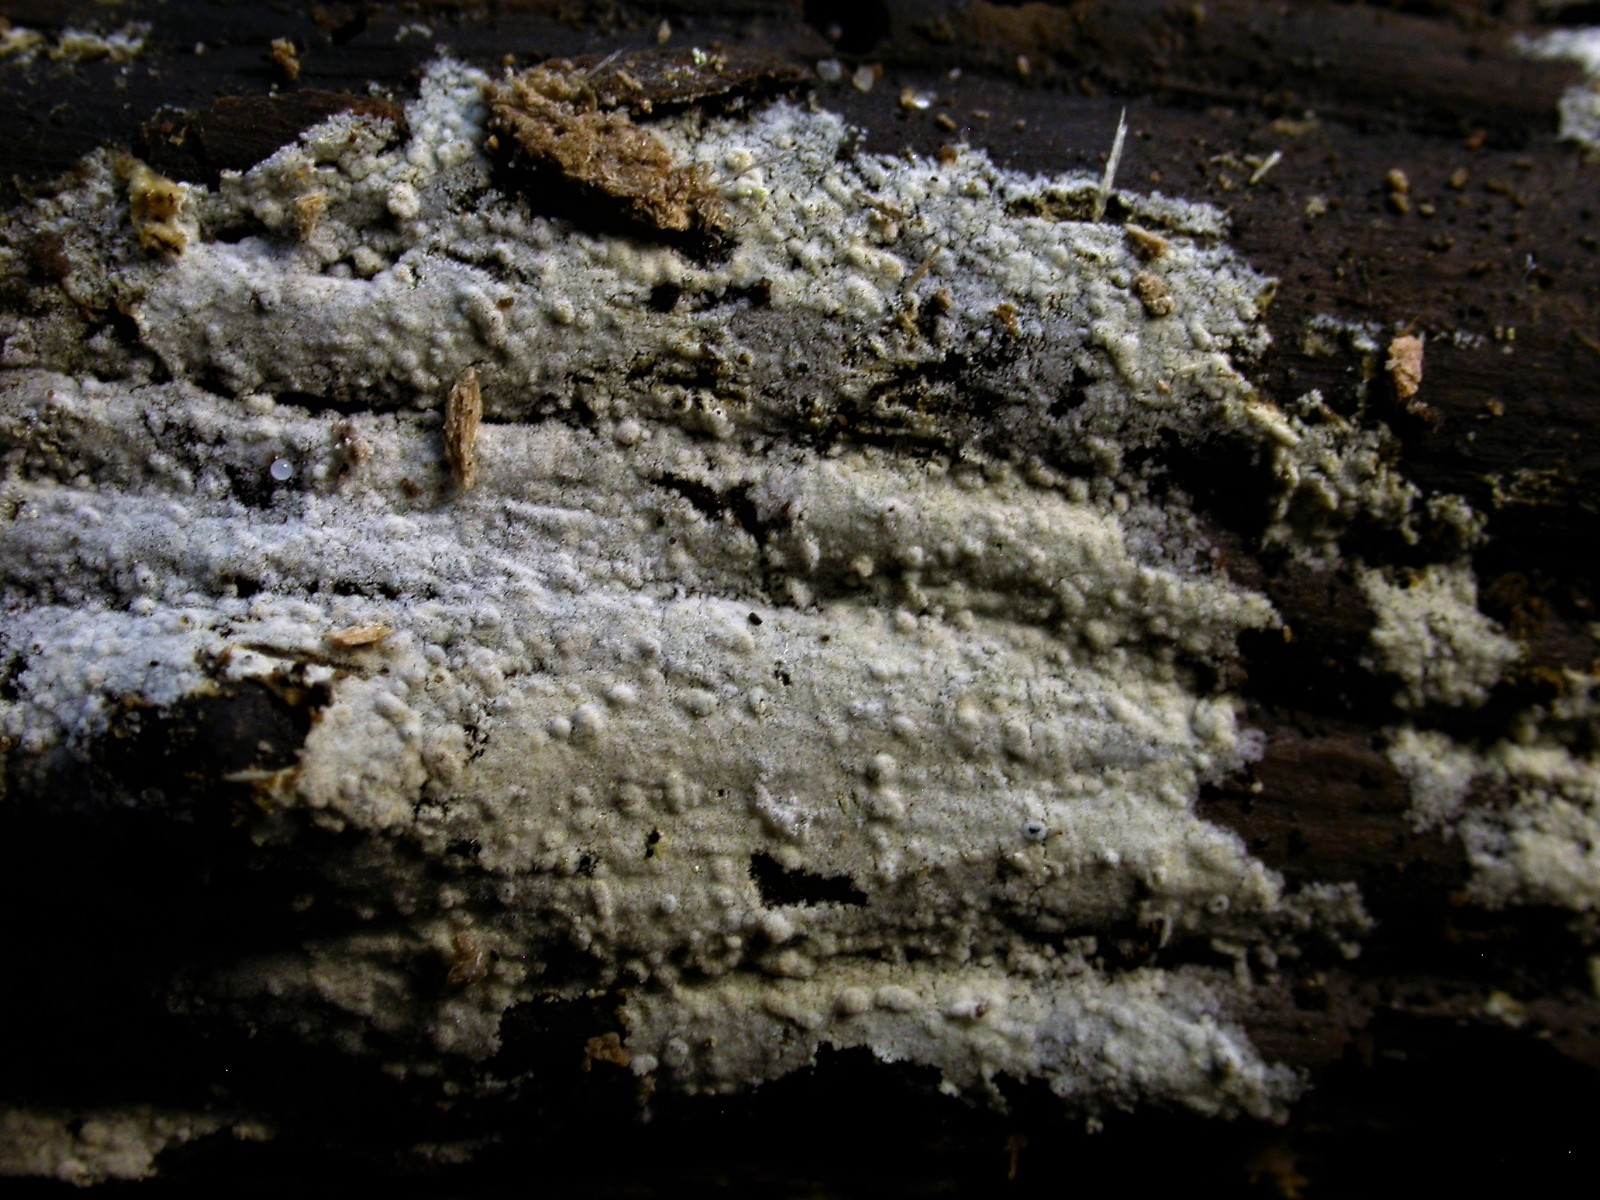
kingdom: Fungi
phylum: Basidiomycota
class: Agaricomycetes
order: Cantharellales
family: Botryobasidiaceae
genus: Botryobasidium
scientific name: Botryobasidium subcoronatum
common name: almindelig spindhinde
